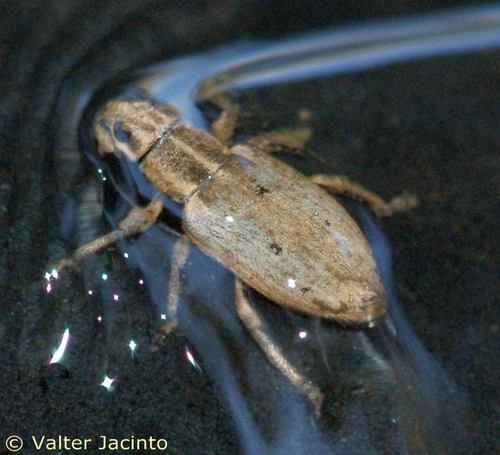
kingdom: Animalia
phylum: Arthropoda
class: Insecta
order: Coleoptera
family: Curculionidae
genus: Sitona
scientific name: Sitona humeralis
